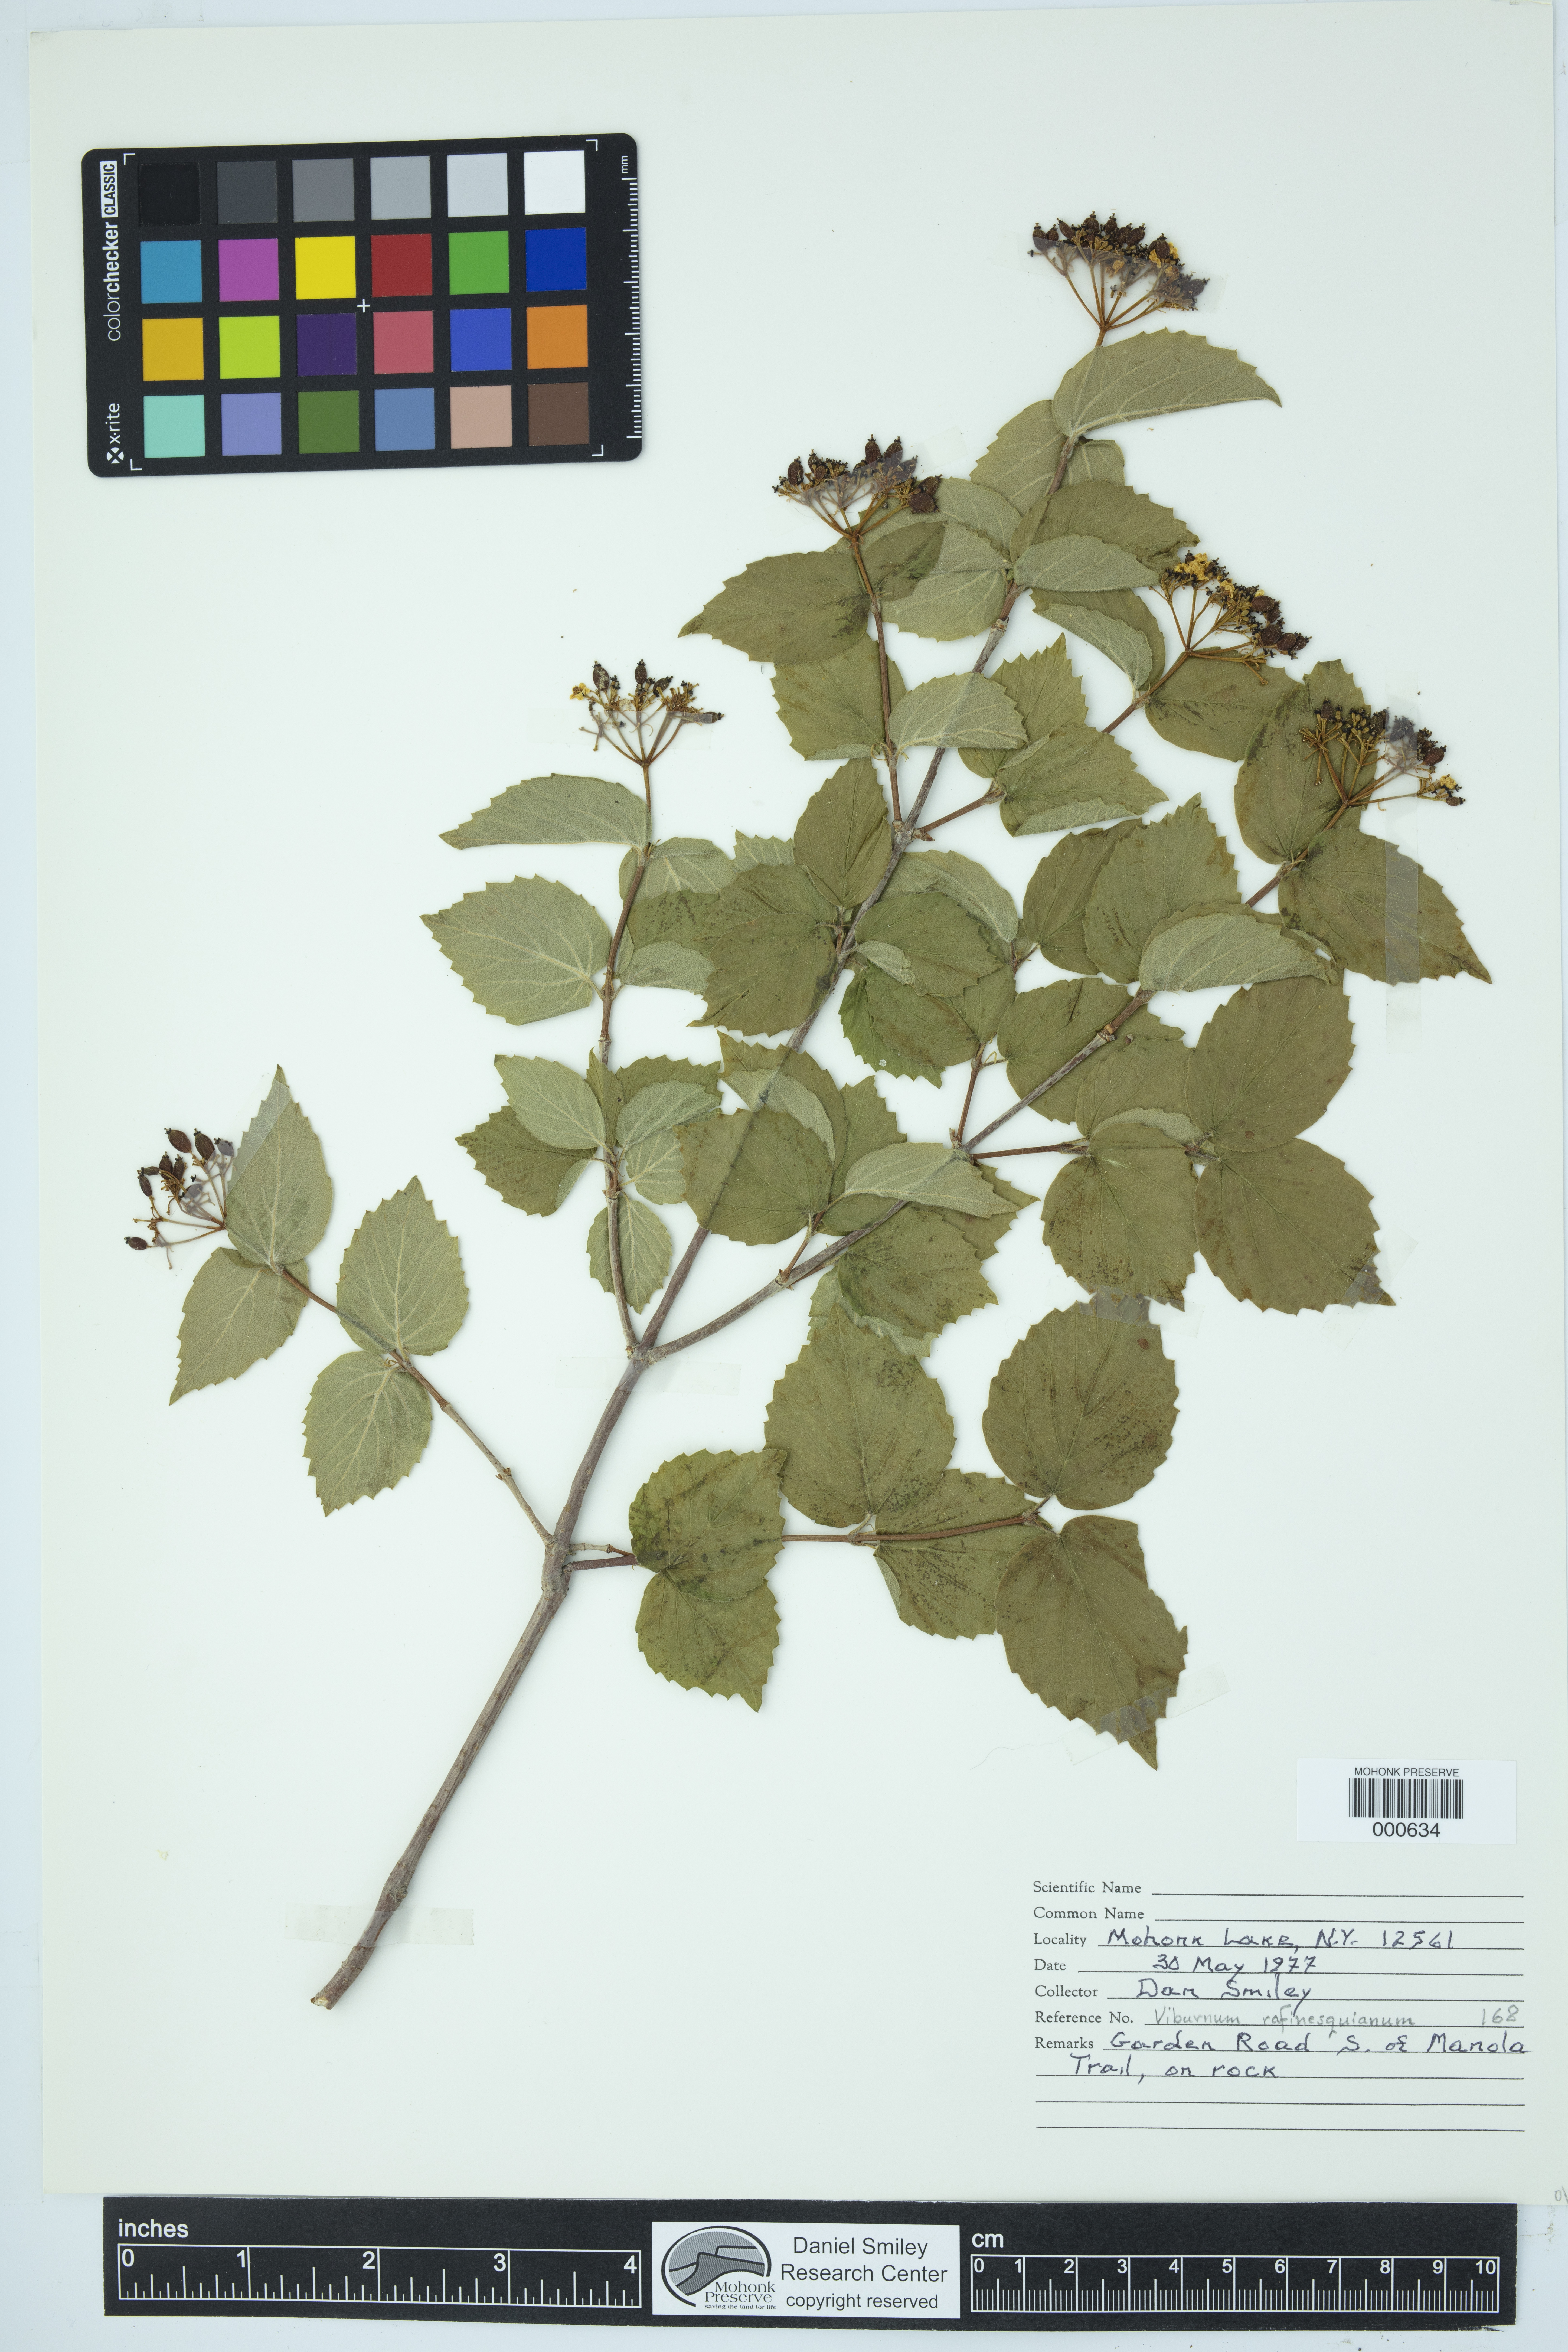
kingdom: Plantae
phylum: Tracheophyta
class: Magnoliopsida
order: Dipsacales
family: Viburnaceae
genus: Viburnum
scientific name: Viburnum rafinesquianum
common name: Downy arrow-wood
